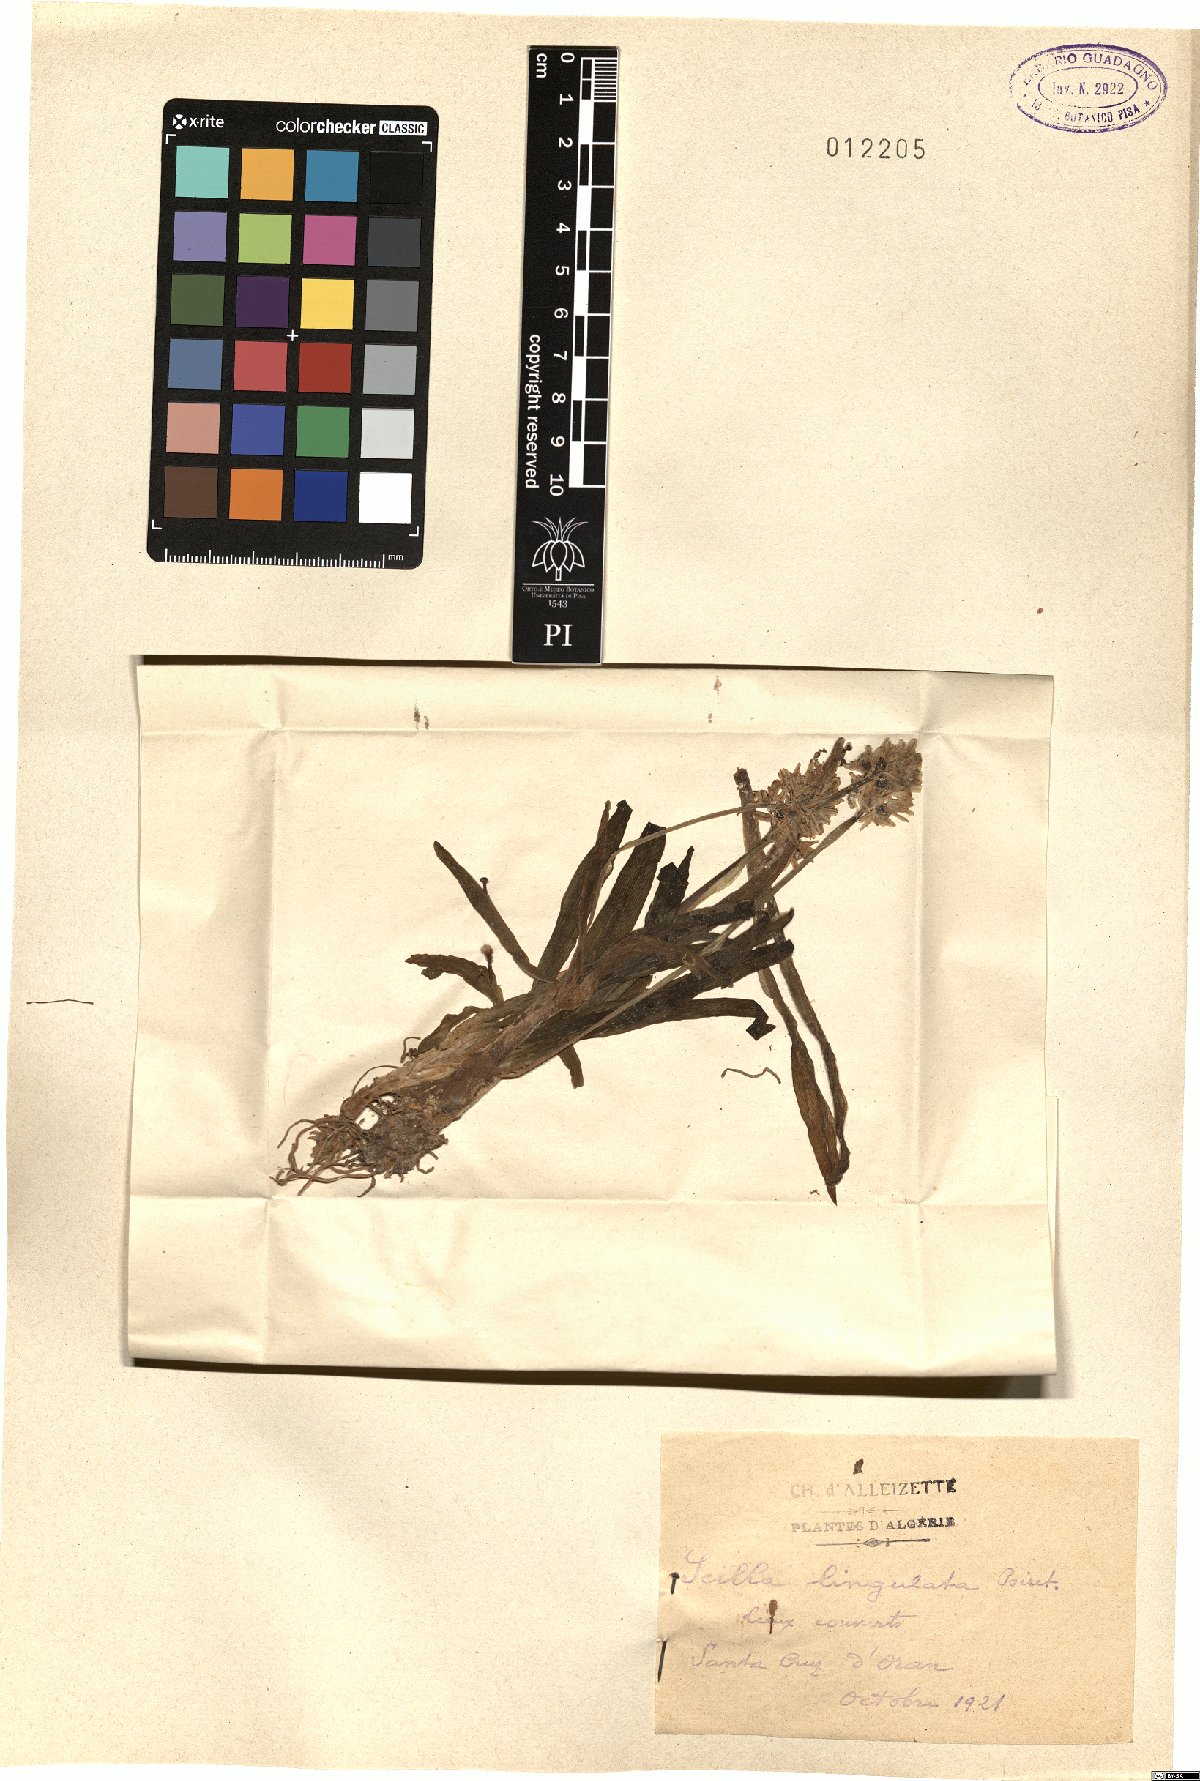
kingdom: Plantae
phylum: Tracheophyta
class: Liliopsida
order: Asparagales
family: Asparagaceae
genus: Hyacinthoides
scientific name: Hyacinthoides lingulata
